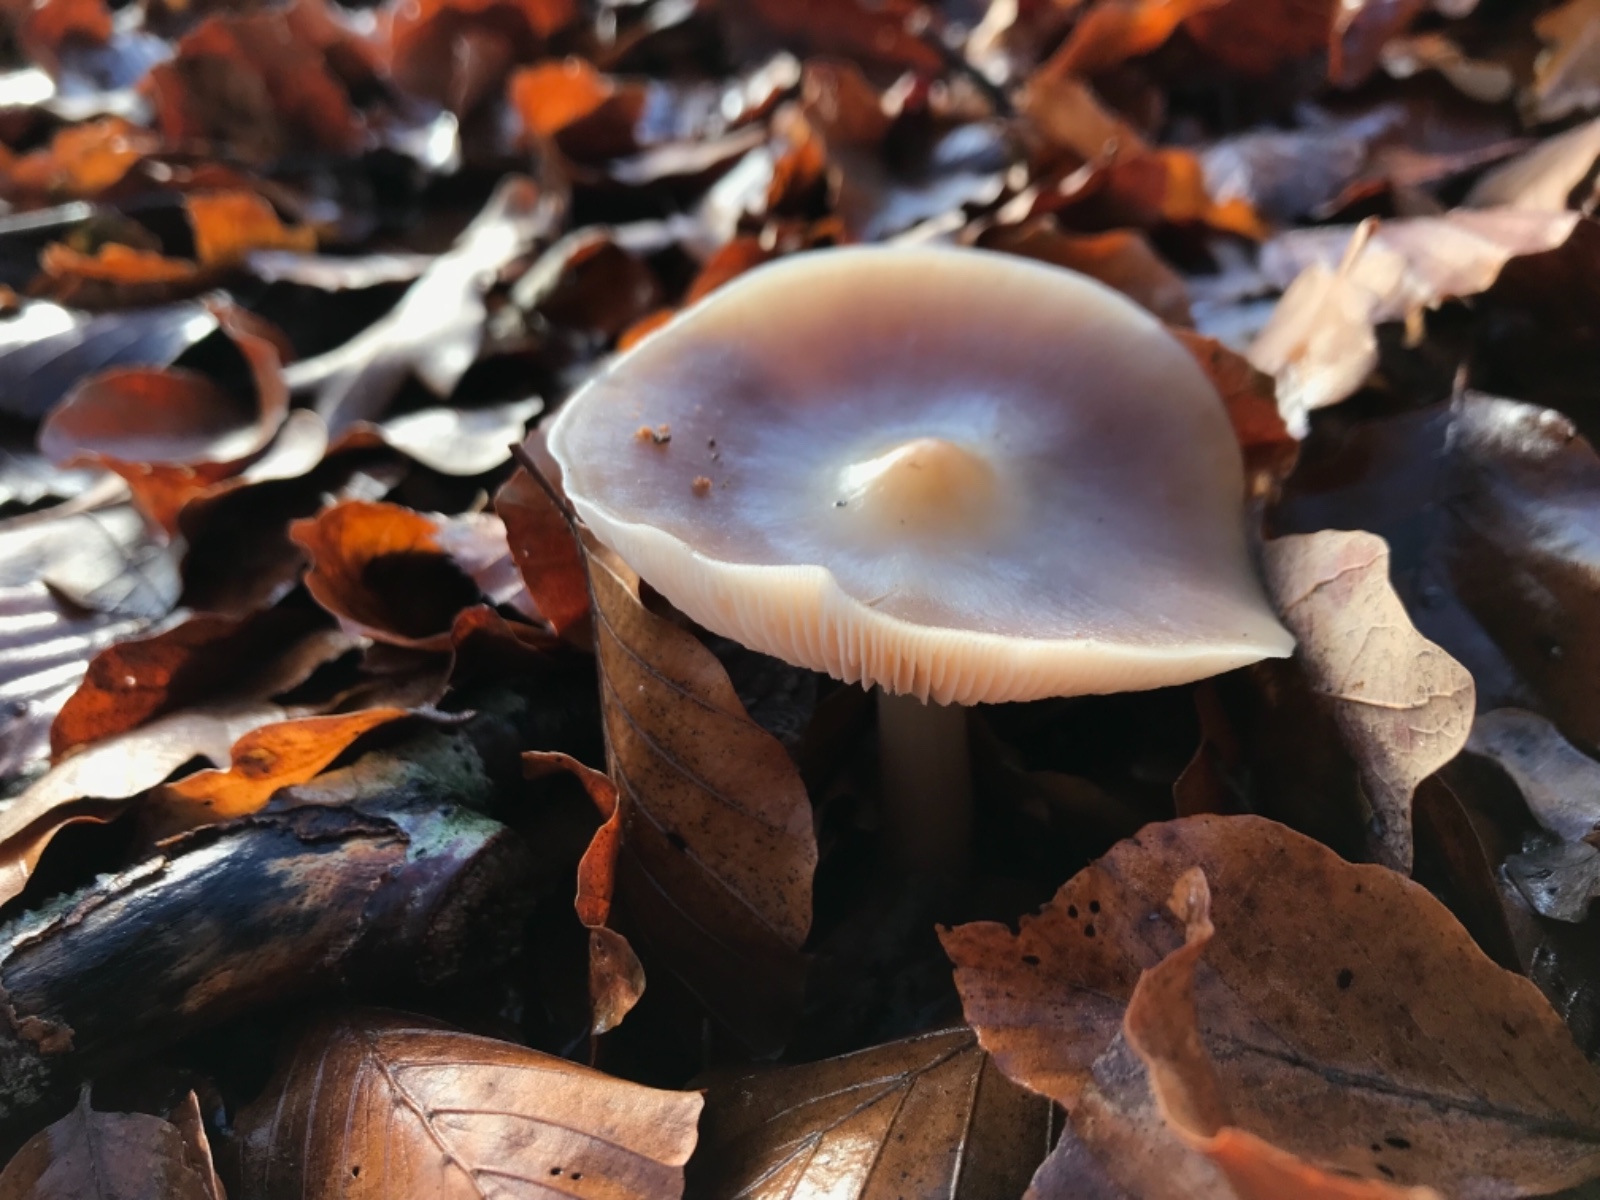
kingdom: Fungi
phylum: Basidiomycota
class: Agaricomycetes
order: Agaricales
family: Omphalotaceae
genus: Rhodocollybia
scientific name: Rhodocollybia asema
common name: horngrå fladhat
